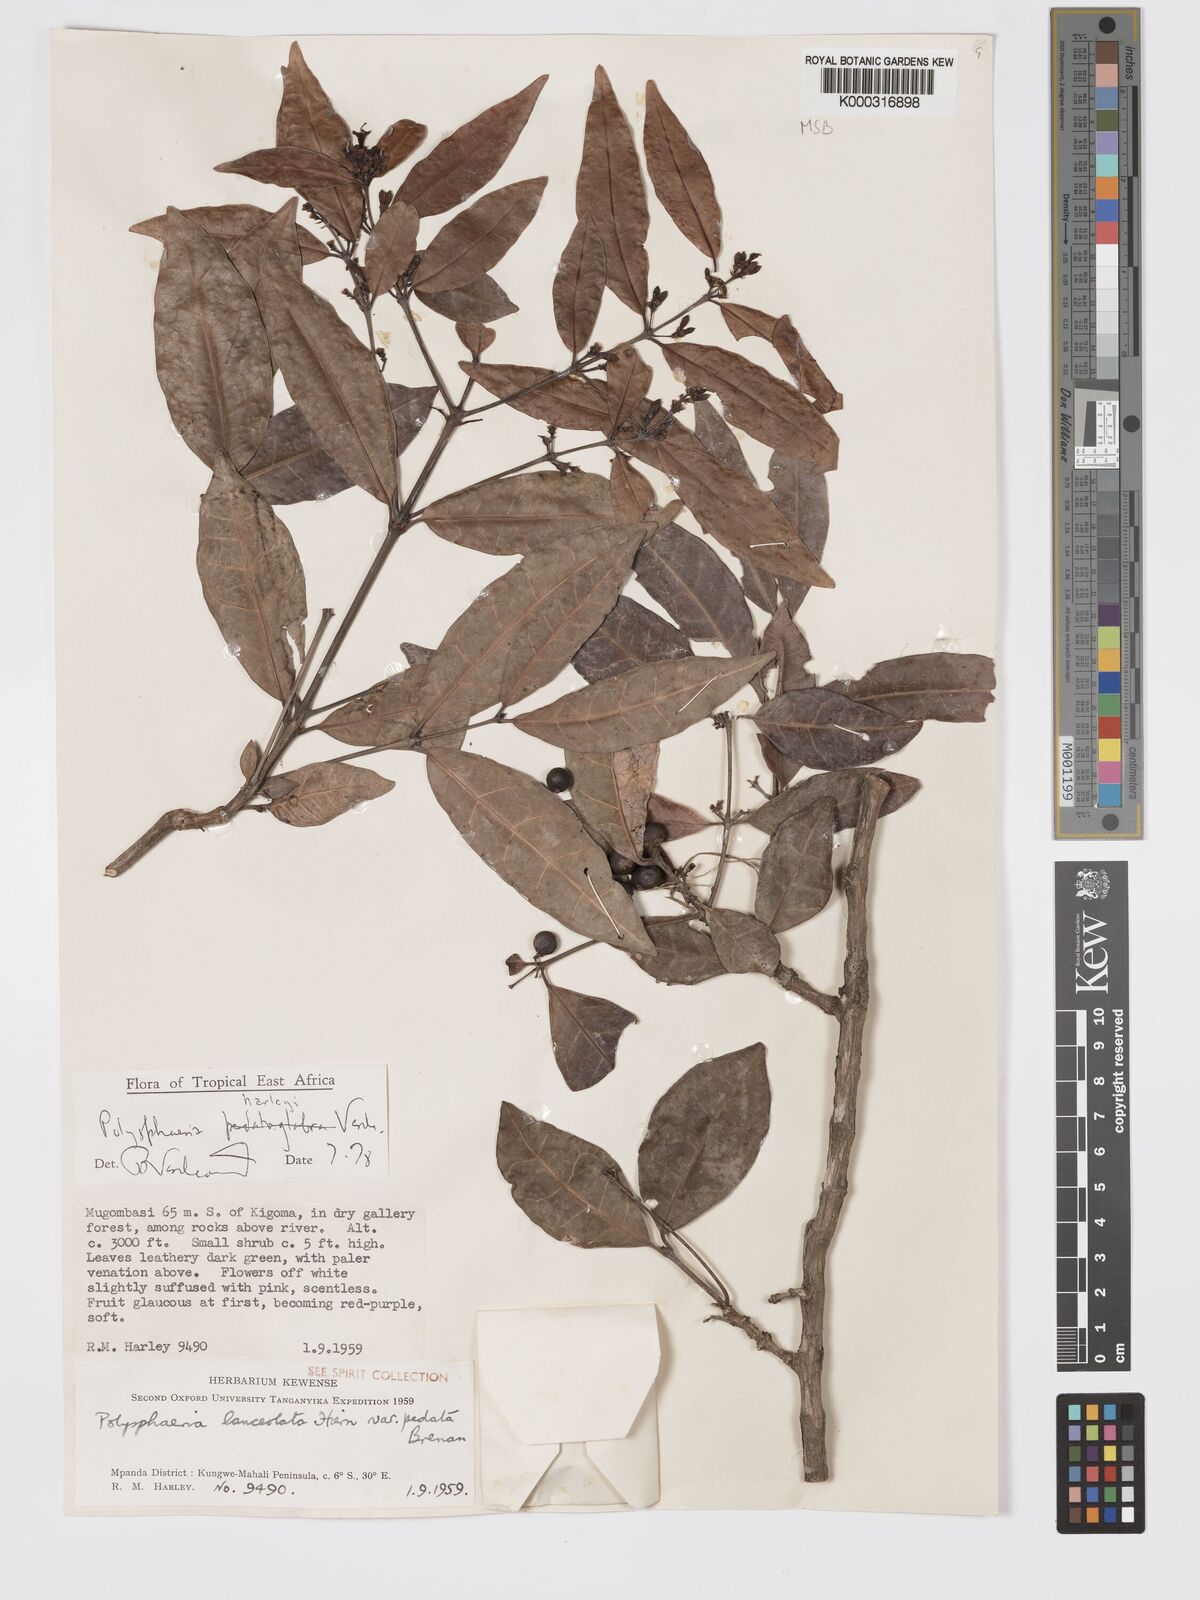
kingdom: Plantae
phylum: Tracheophyta
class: Magnoliopsida
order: Gentianales
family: Rubiaceae
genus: Polysphaeria
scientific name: Polysphaeria lanceolata
